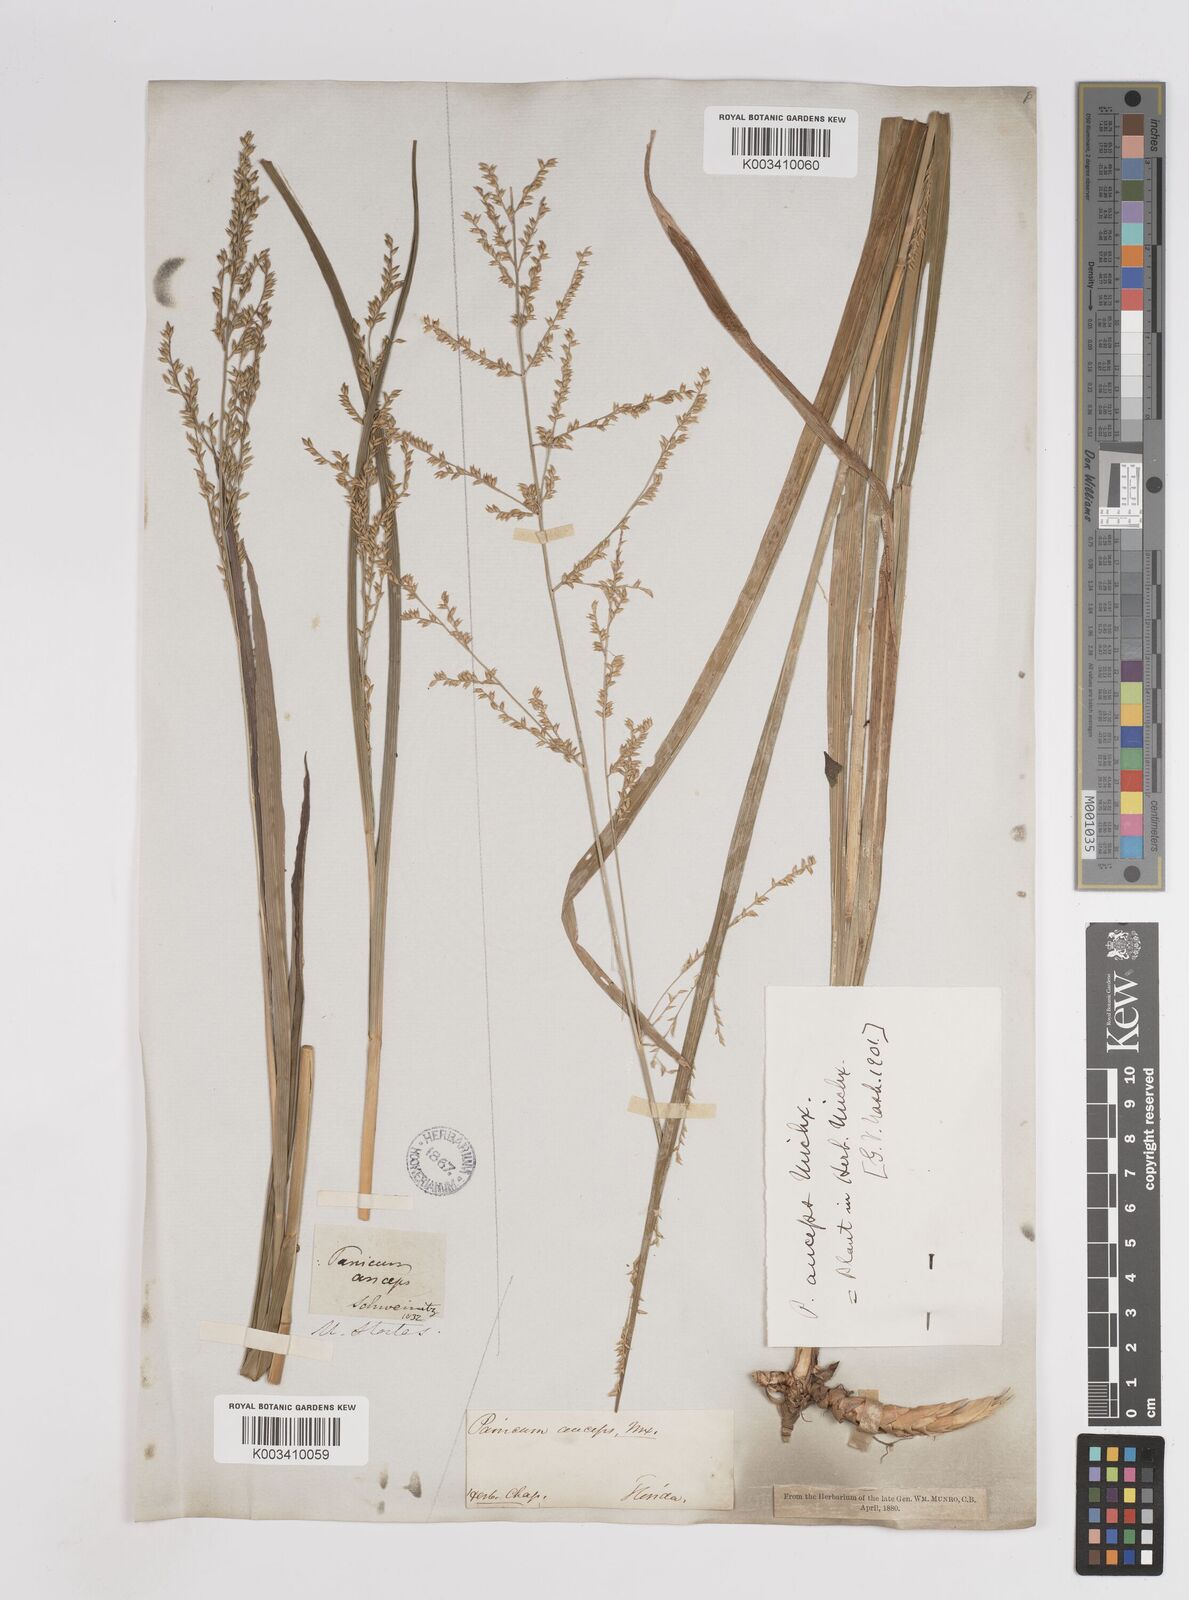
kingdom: Plantae
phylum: Tracheophyta
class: Liliopsida
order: Poales
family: Poaceae
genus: Coleataenia
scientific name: Coleataenia anceps
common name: Beaked panic grass
